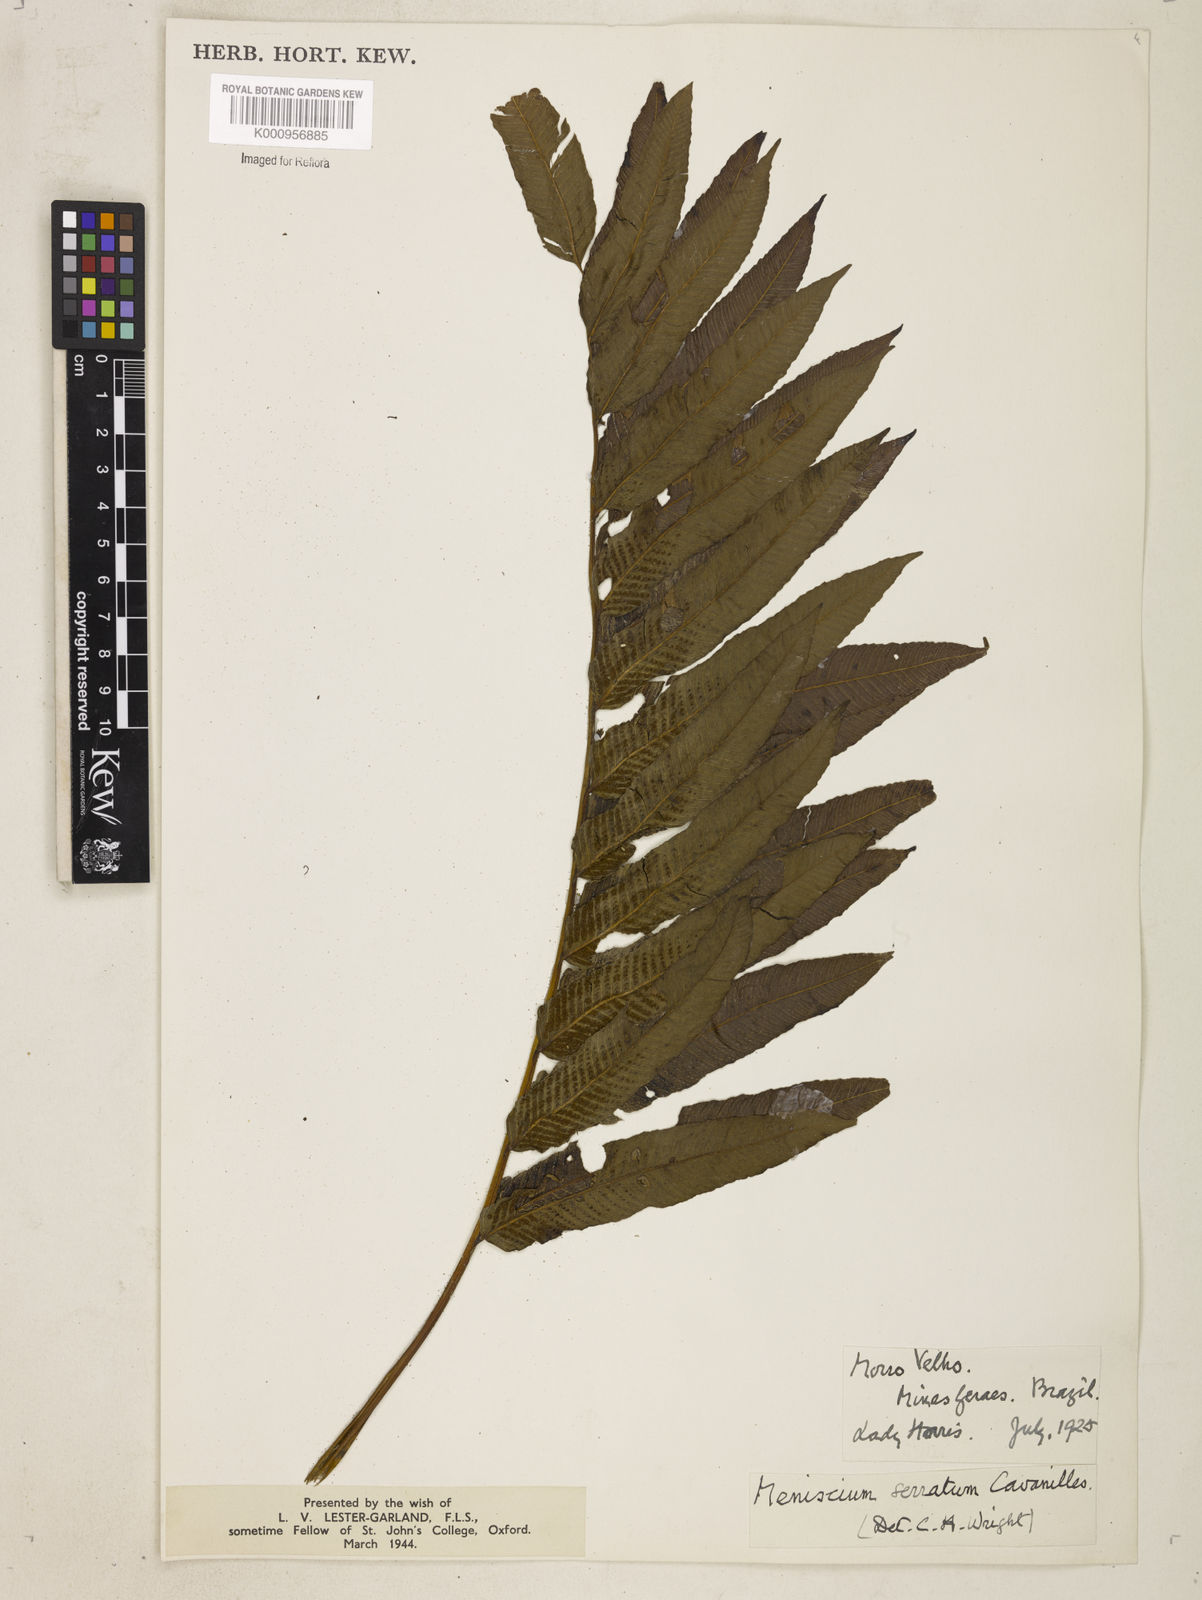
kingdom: Plantae
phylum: Tracheophyta
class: Polypodiopsida
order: Polypodiales
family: Thelypteridaceae
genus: Meniscium
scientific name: Meniscium serratum
